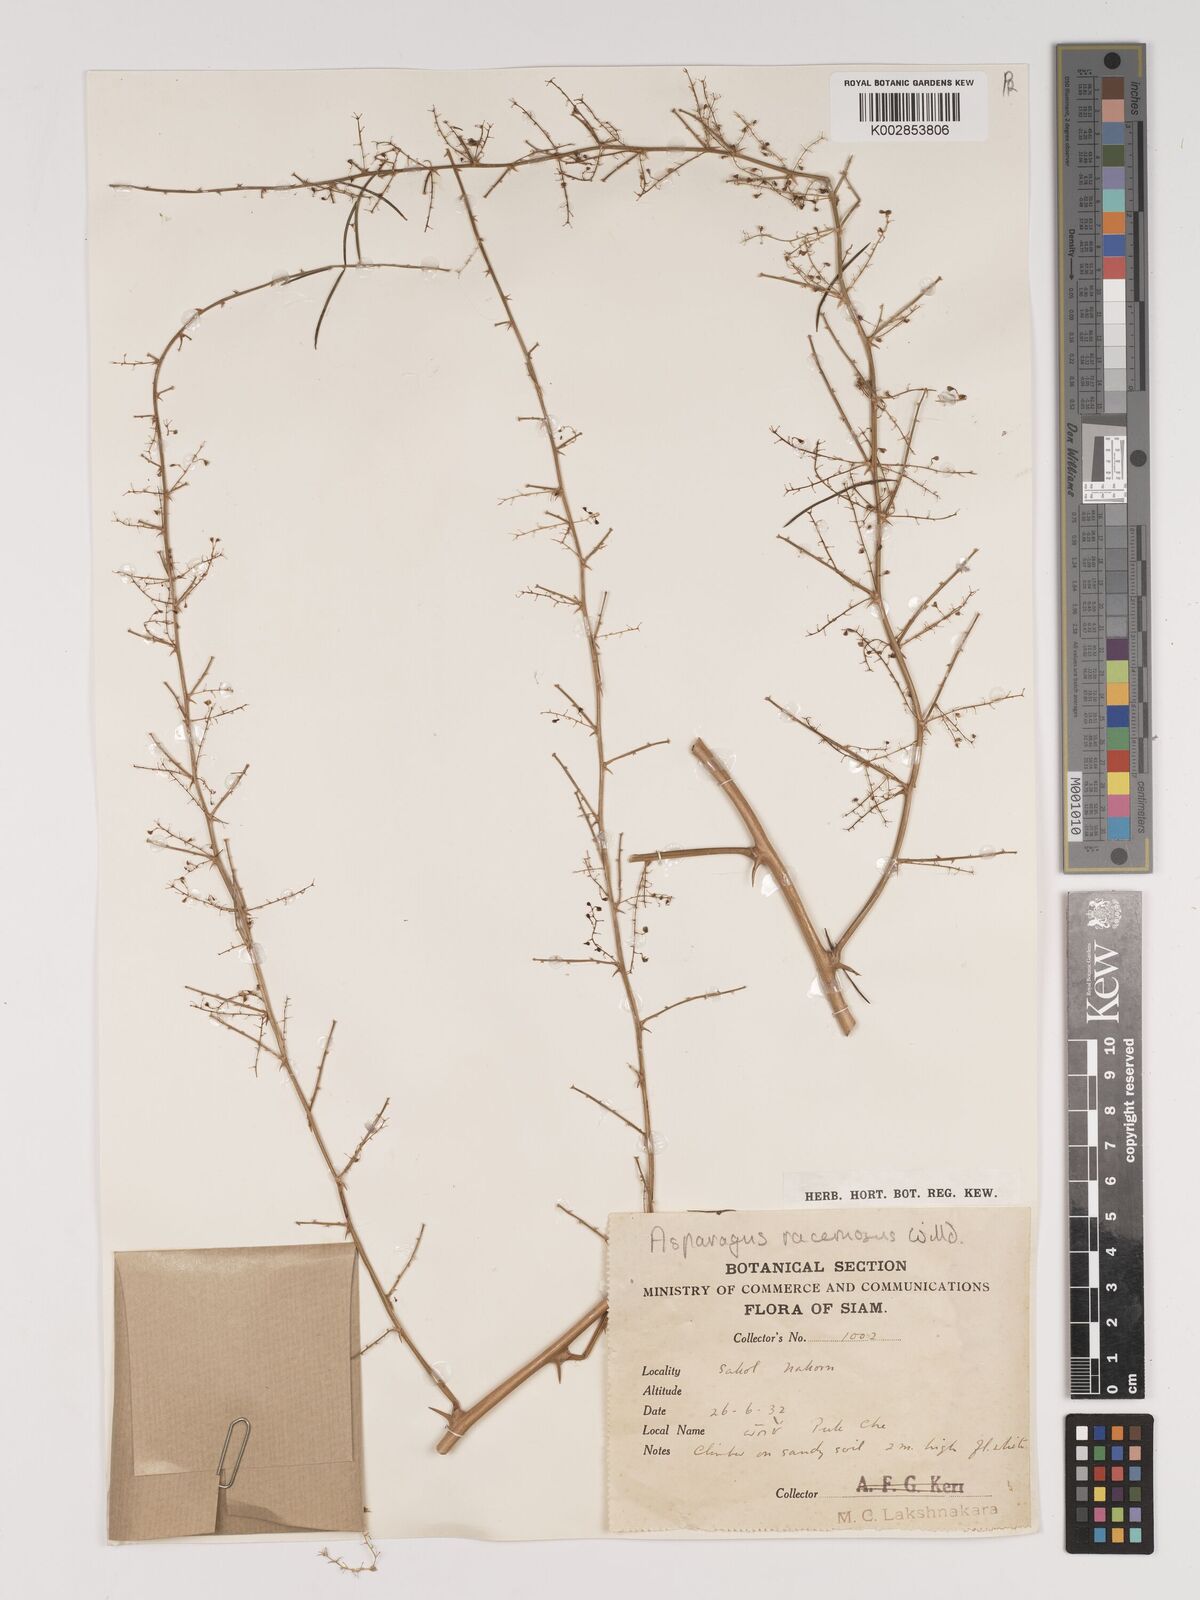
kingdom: Plantae
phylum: Tracheophyta
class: Liliopsida
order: Asparagales
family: Asparagaceae
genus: Asparagus
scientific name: Asparagus racemosus
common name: Asparagus-fern
